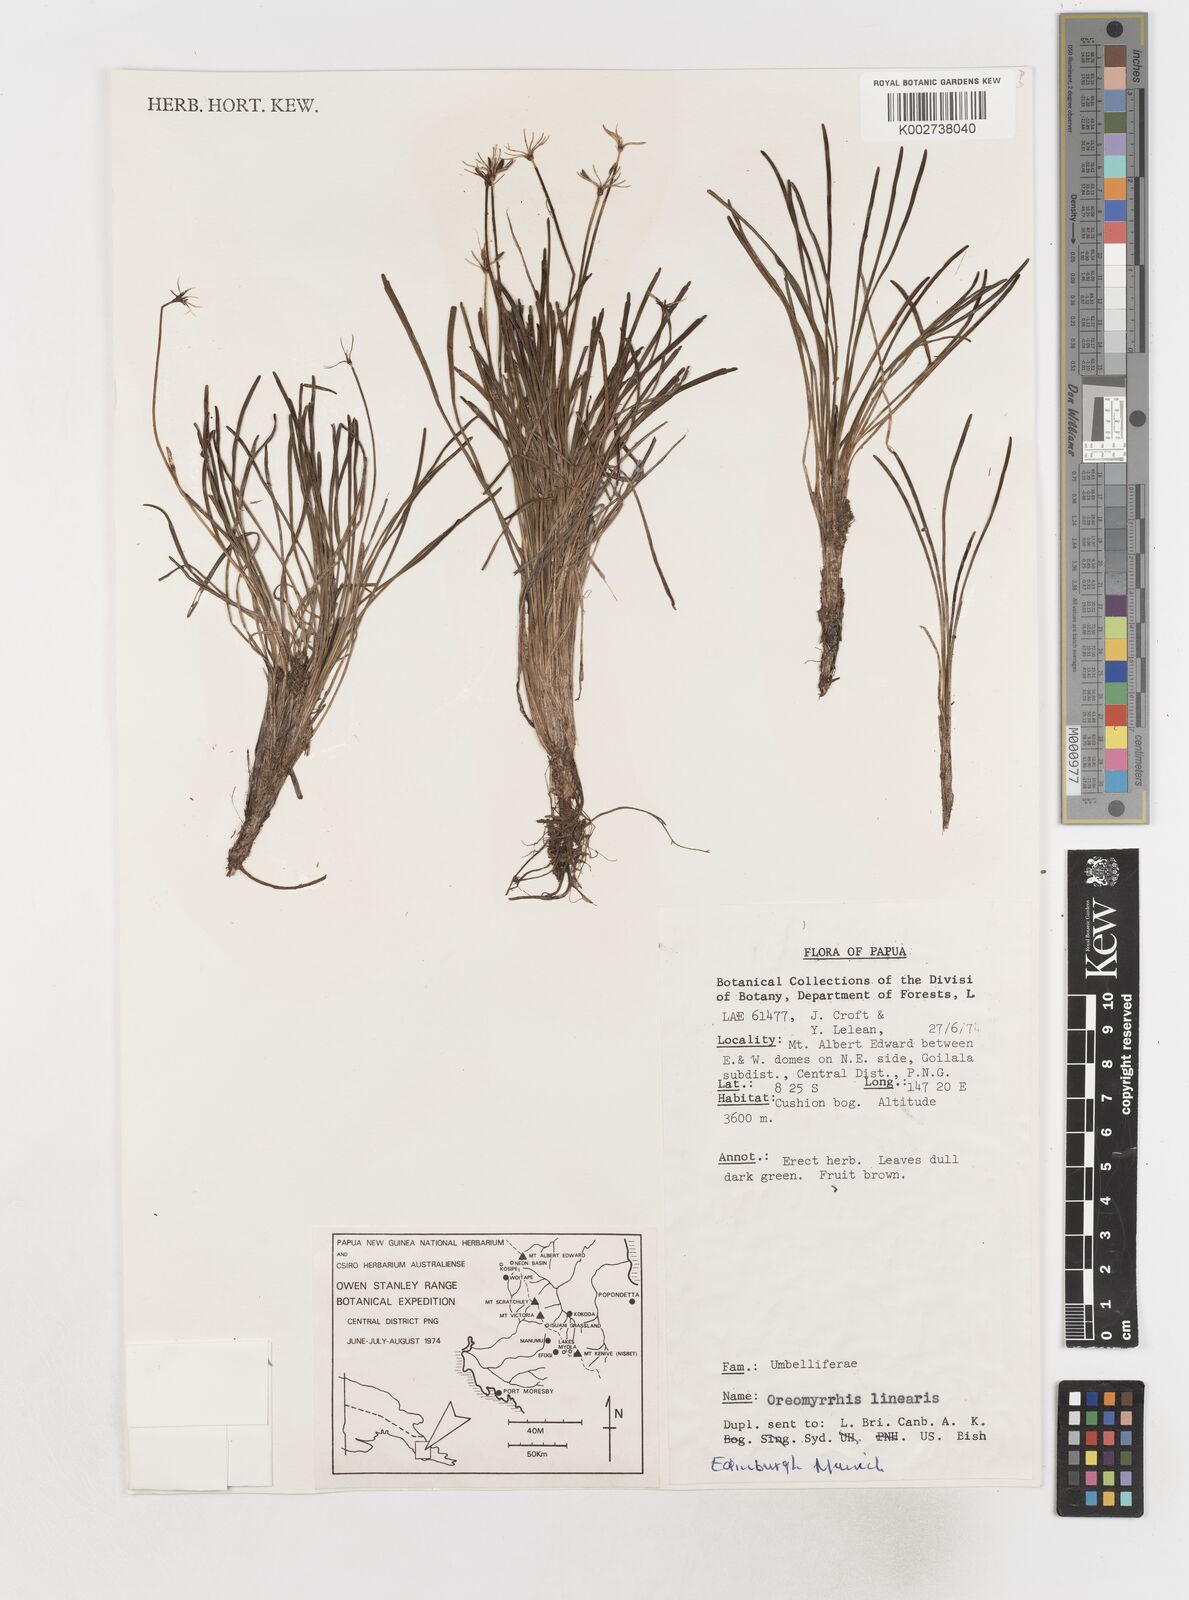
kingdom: Plantae
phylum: Tracheophyta
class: Magnoliopsida
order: Apiales
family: Apiaceae
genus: Chaerophyllum
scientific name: Chaerophyllum lineare
